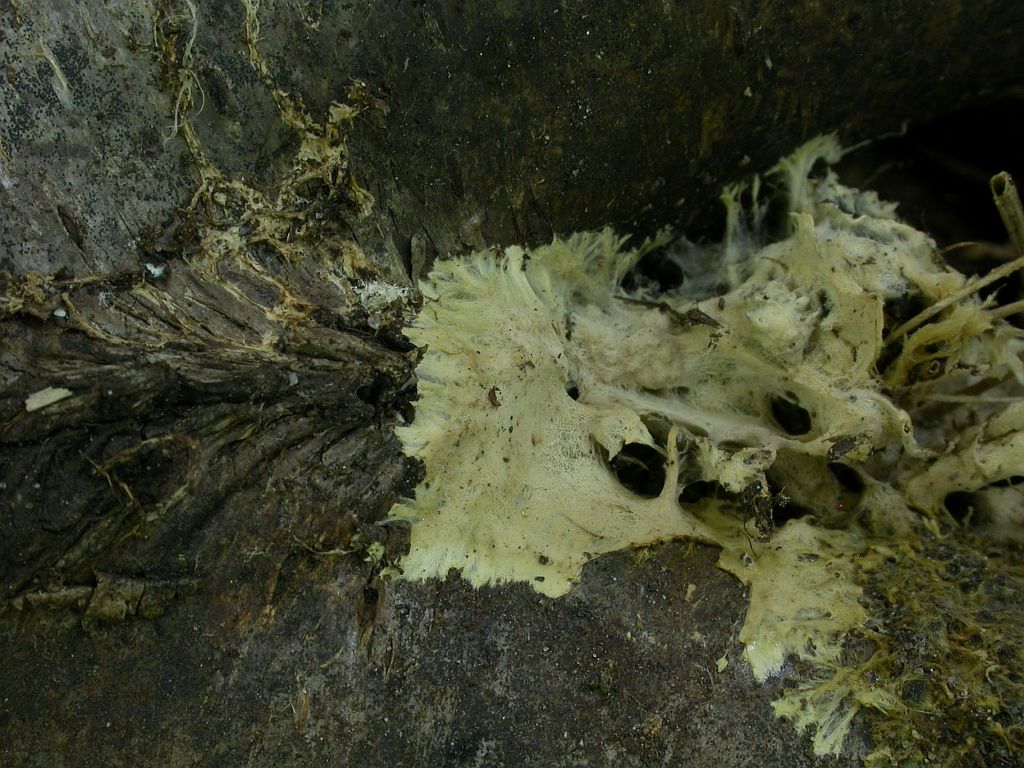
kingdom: Fungi
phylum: Basidiomycota
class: Agaricomycetes
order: Russulales
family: Xenasmataceae
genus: Xenasmatella
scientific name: Xenasmatella vaga
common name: svovl-strenghinde
